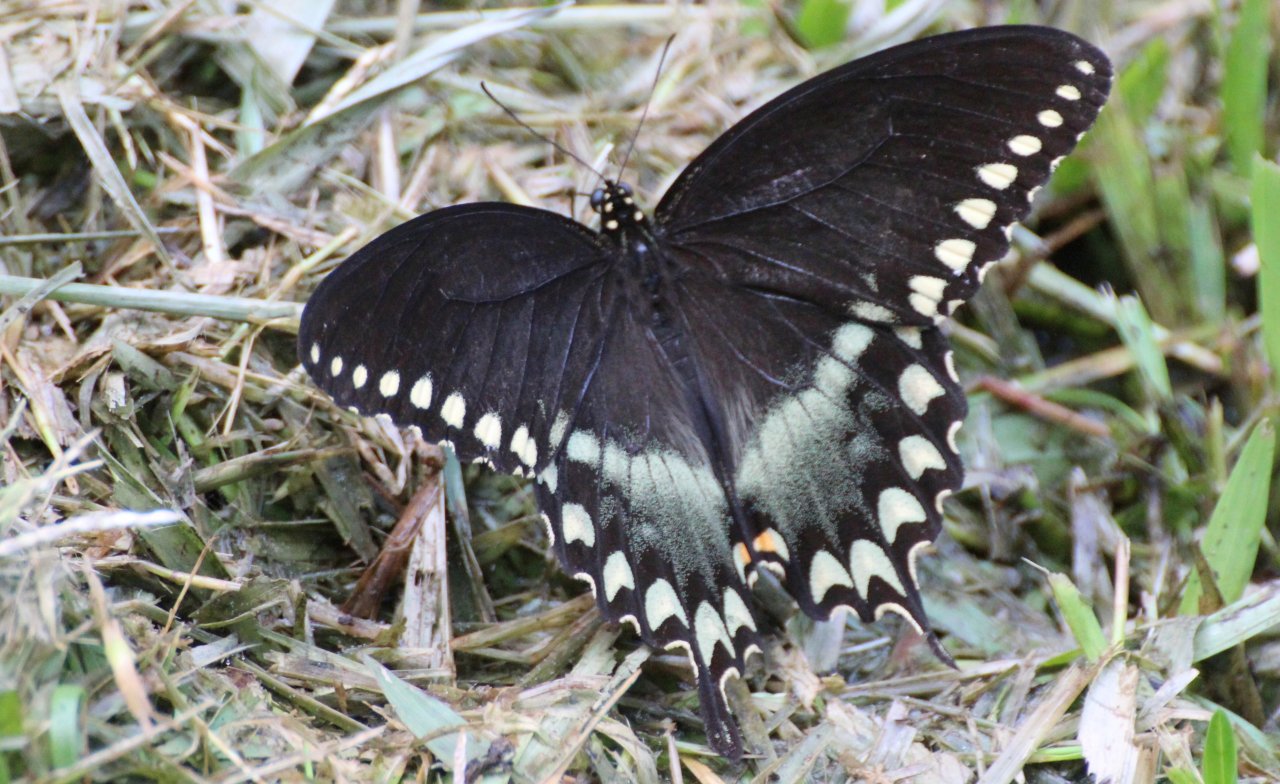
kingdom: Animalia
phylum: Arthropoda
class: Insecta
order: Lepidoptera
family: Papilionidae
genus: Pterourus
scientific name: Pterourus troilus
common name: Spicebush Swallowtail
